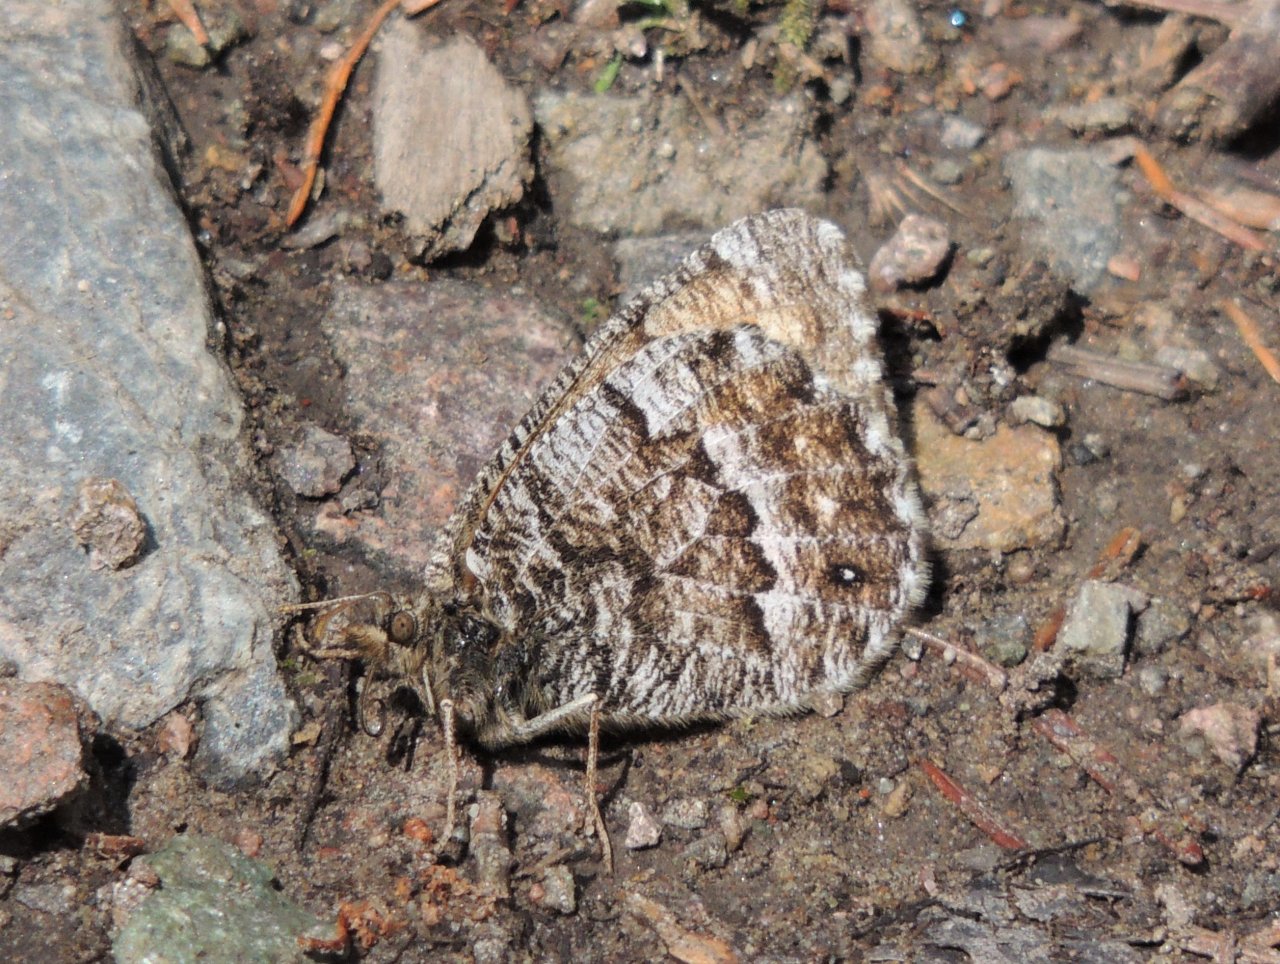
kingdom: Animalia
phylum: Arthropoda
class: Insecta
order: Lepidoptera
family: Nymphalidae
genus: Oeneis
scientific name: Oeneis chryxus
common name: Chryxus Arctic
